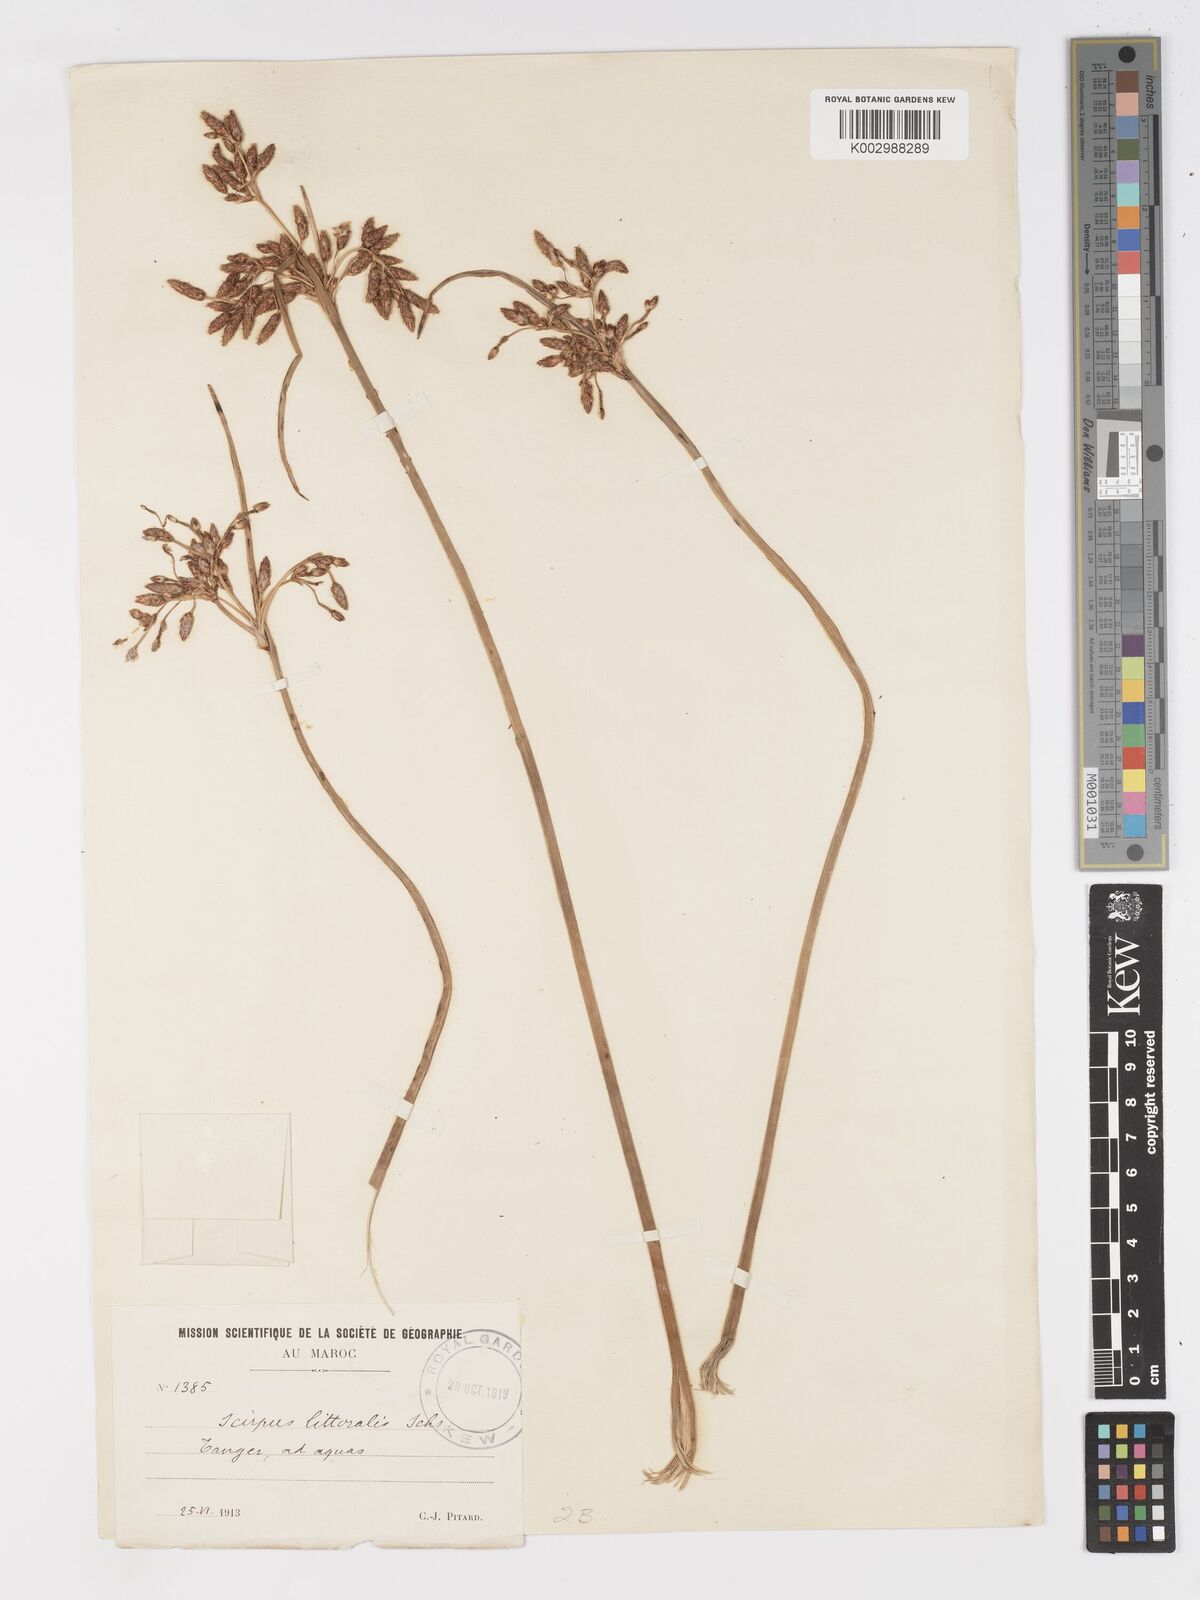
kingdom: Plantae
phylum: Tracheophyta
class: Liliopsida
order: Poales
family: Cyperaceae
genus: Schoenoplectus
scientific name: Schoenoplectus litoralis
